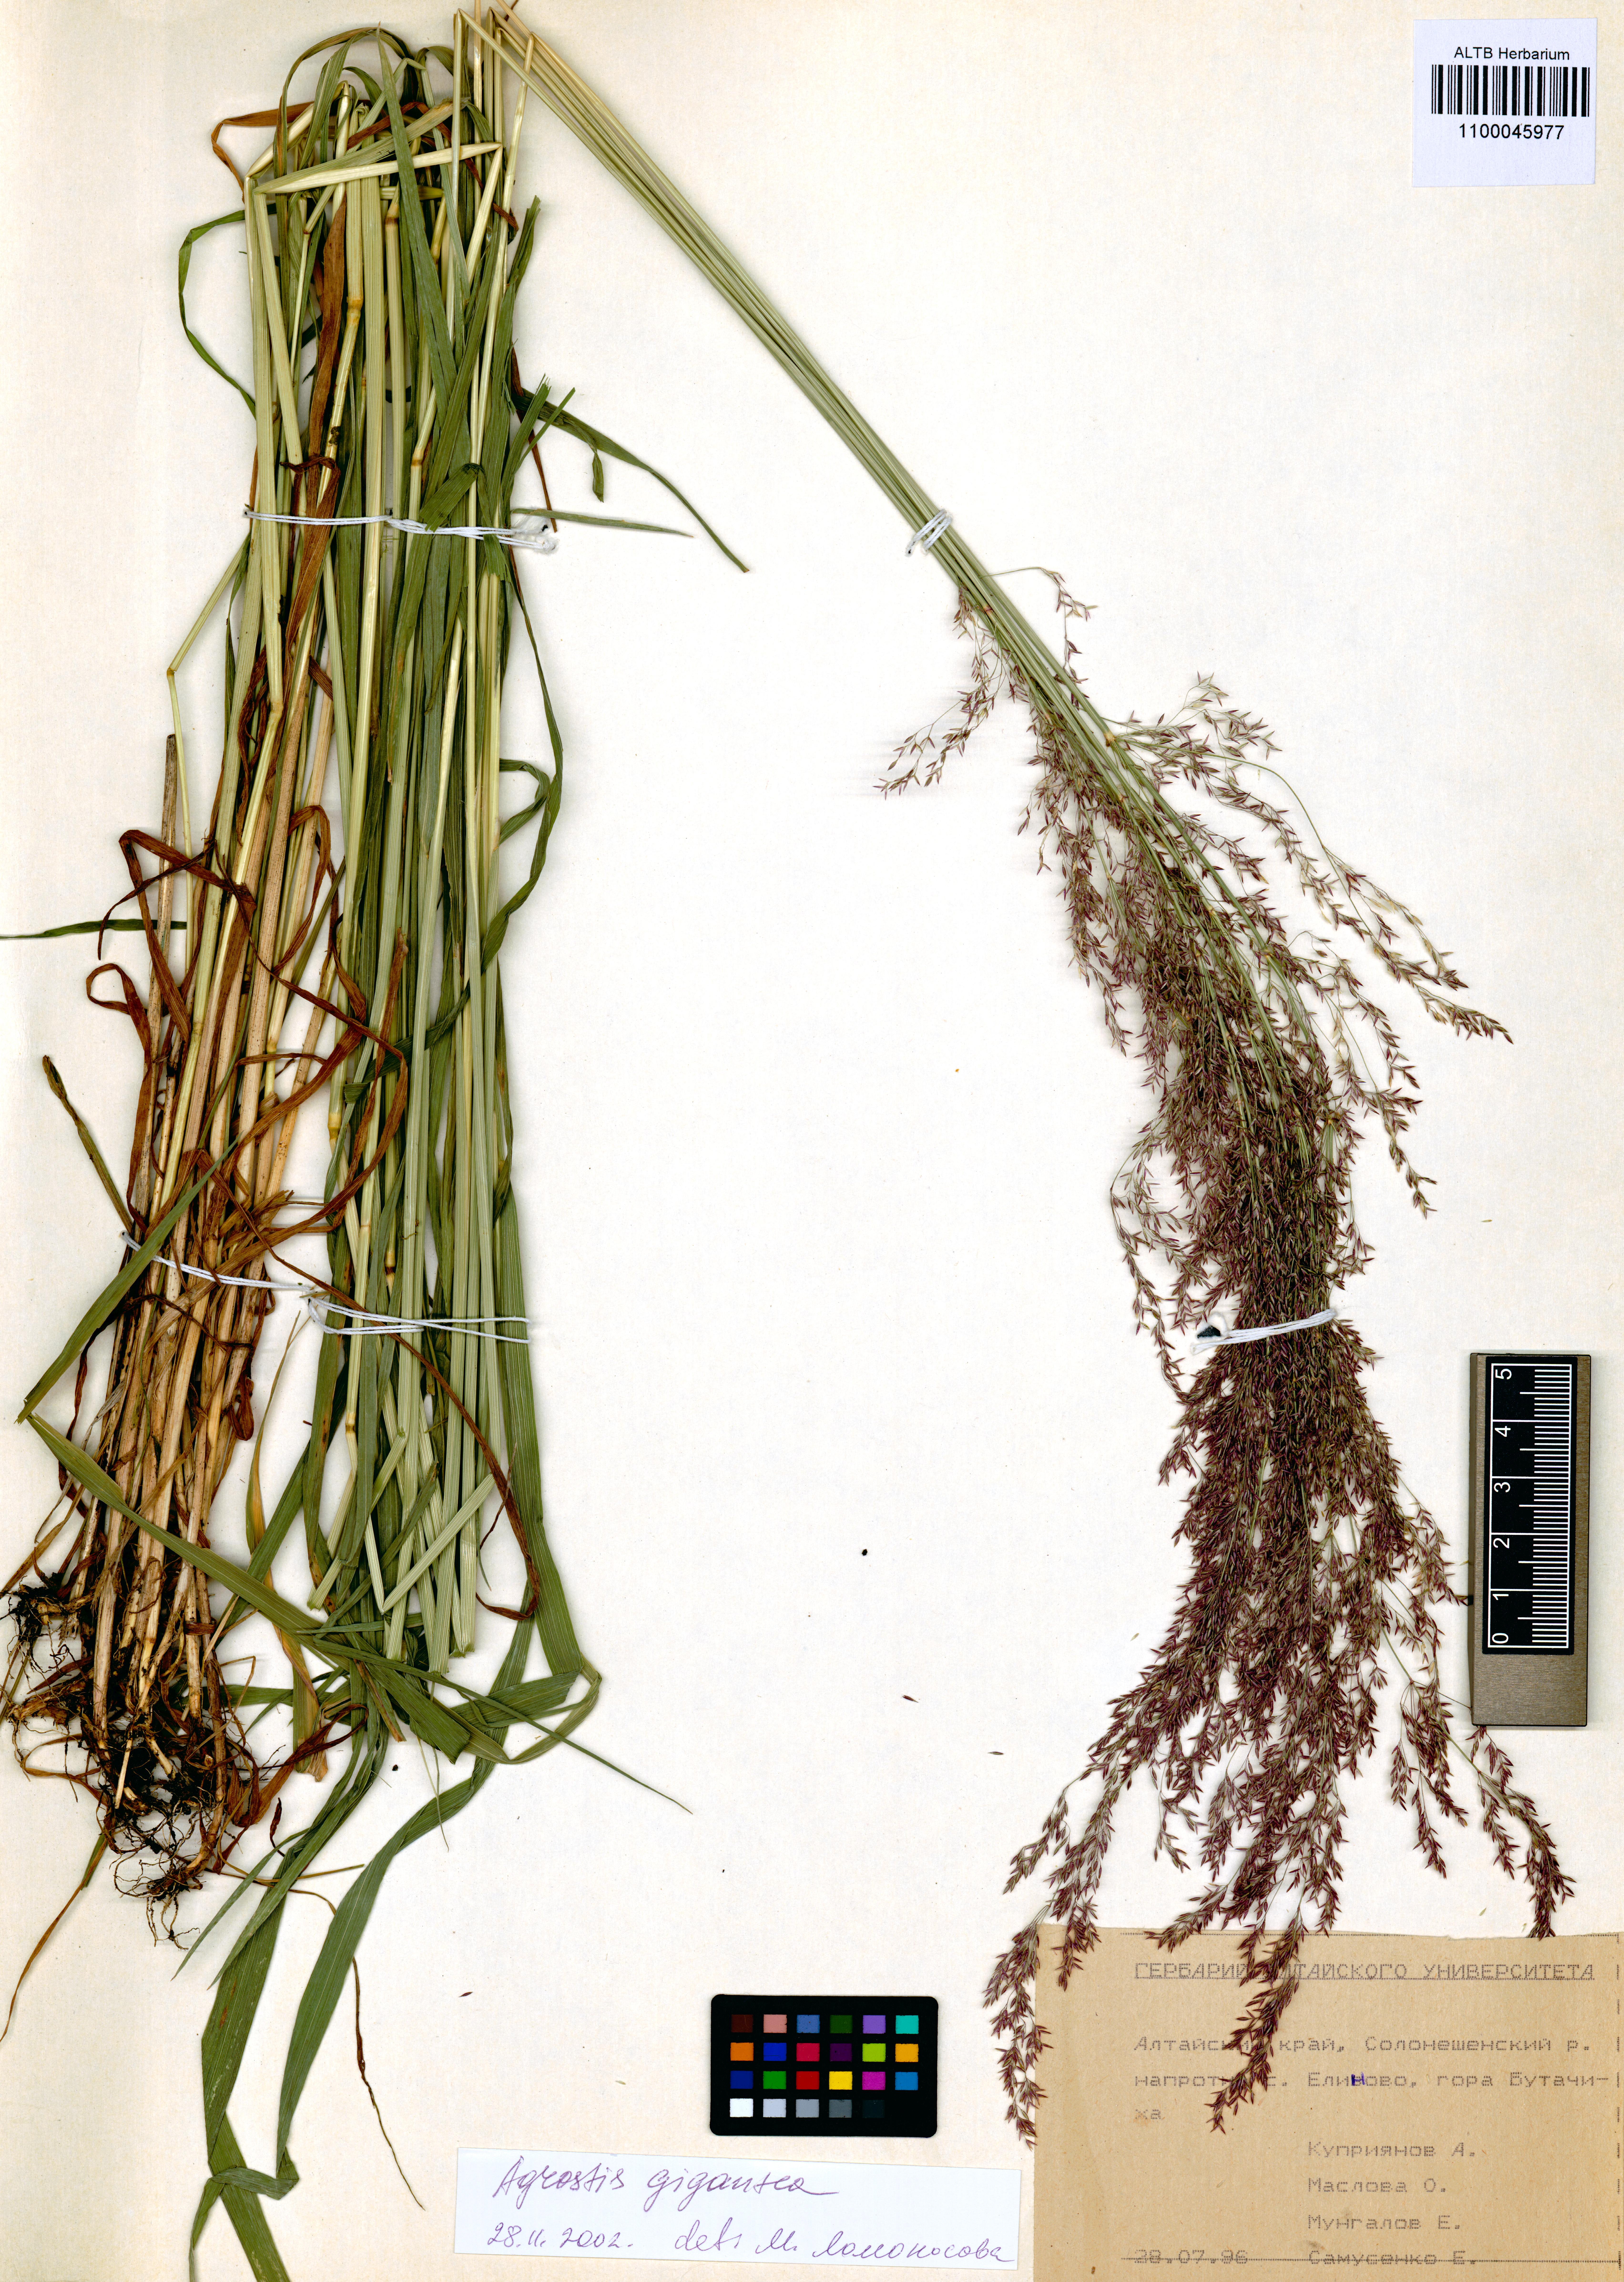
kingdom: Plantae
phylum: Tracheophyta
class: Liliopsida
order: Poales
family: Poaceae
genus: Agrostis
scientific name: Agrostis gigantea
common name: Black bent
